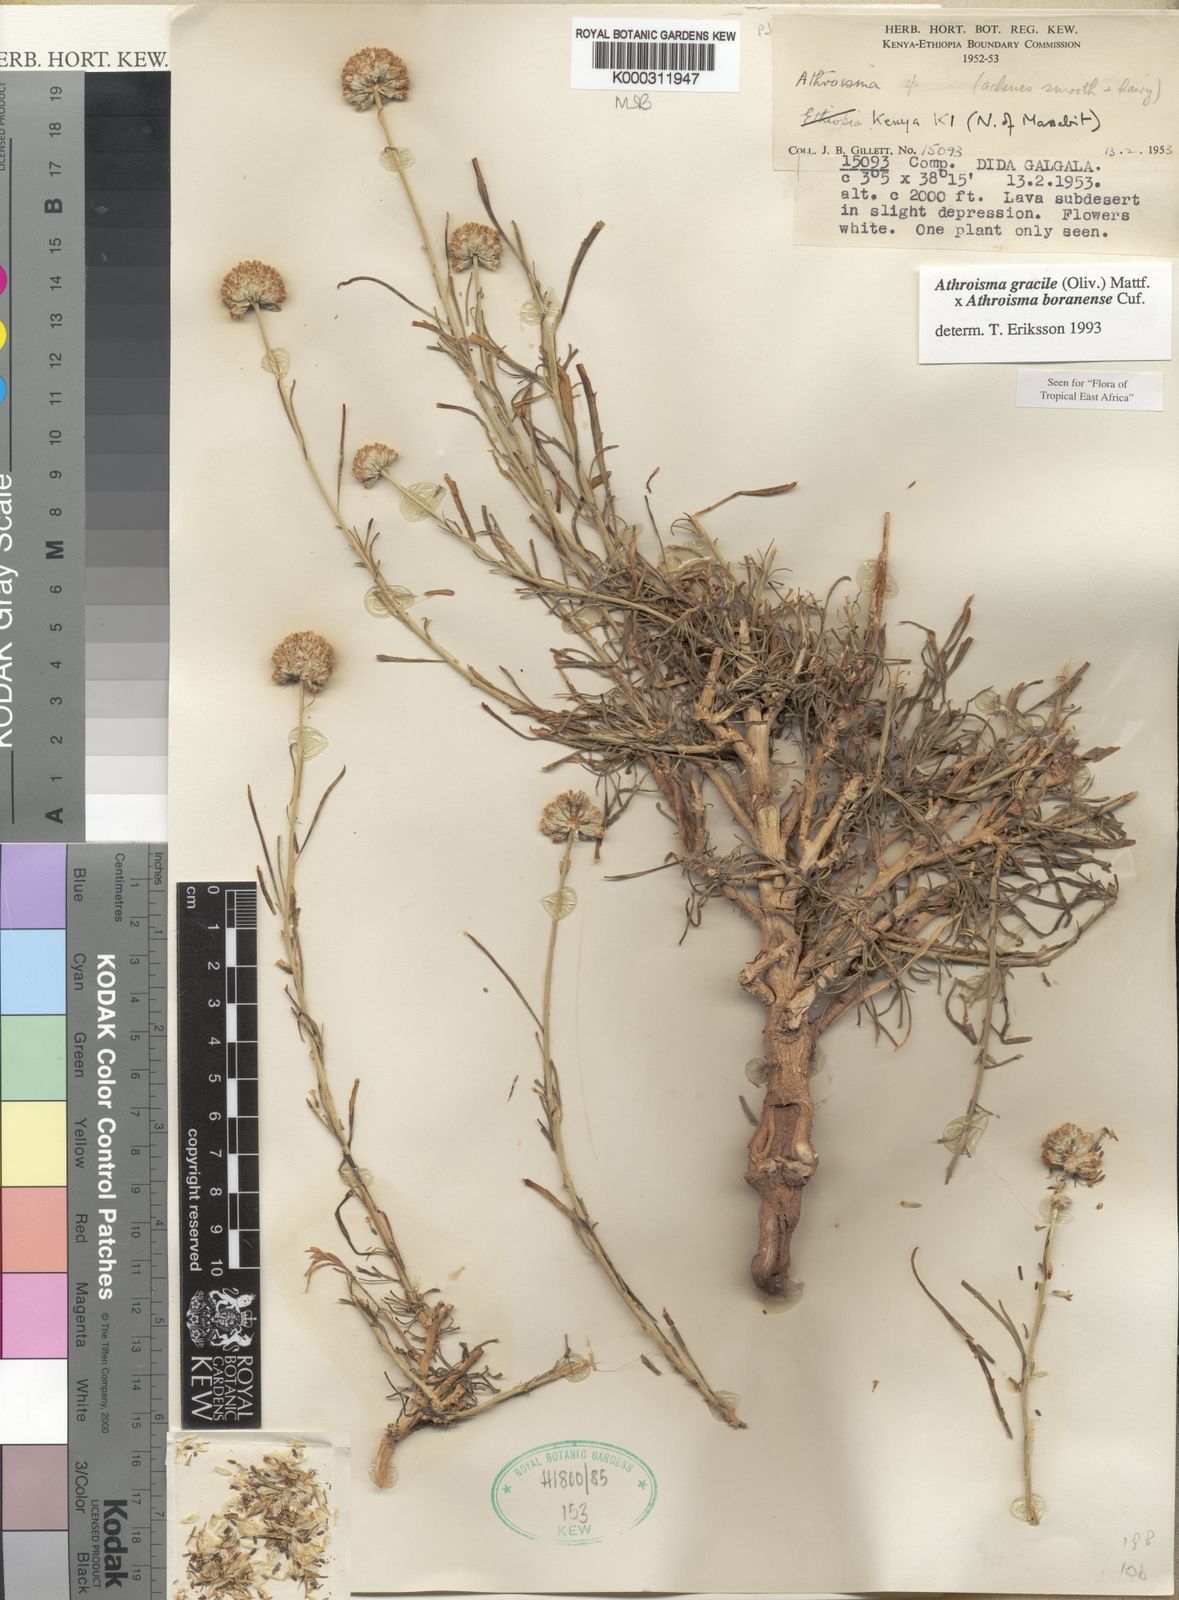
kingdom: Plantae
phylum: Tracheophyta
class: Magnoliopsida
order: Asterales
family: Asteraceae
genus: Athroisma
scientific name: Athroisma
